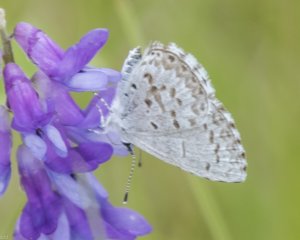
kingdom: Animalia
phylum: Arthropoda
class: Insecta
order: Lepidoptera
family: Lycaenidae
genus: Celastrina
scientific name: Celastrina serotina
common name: Cherry Gall Azure
